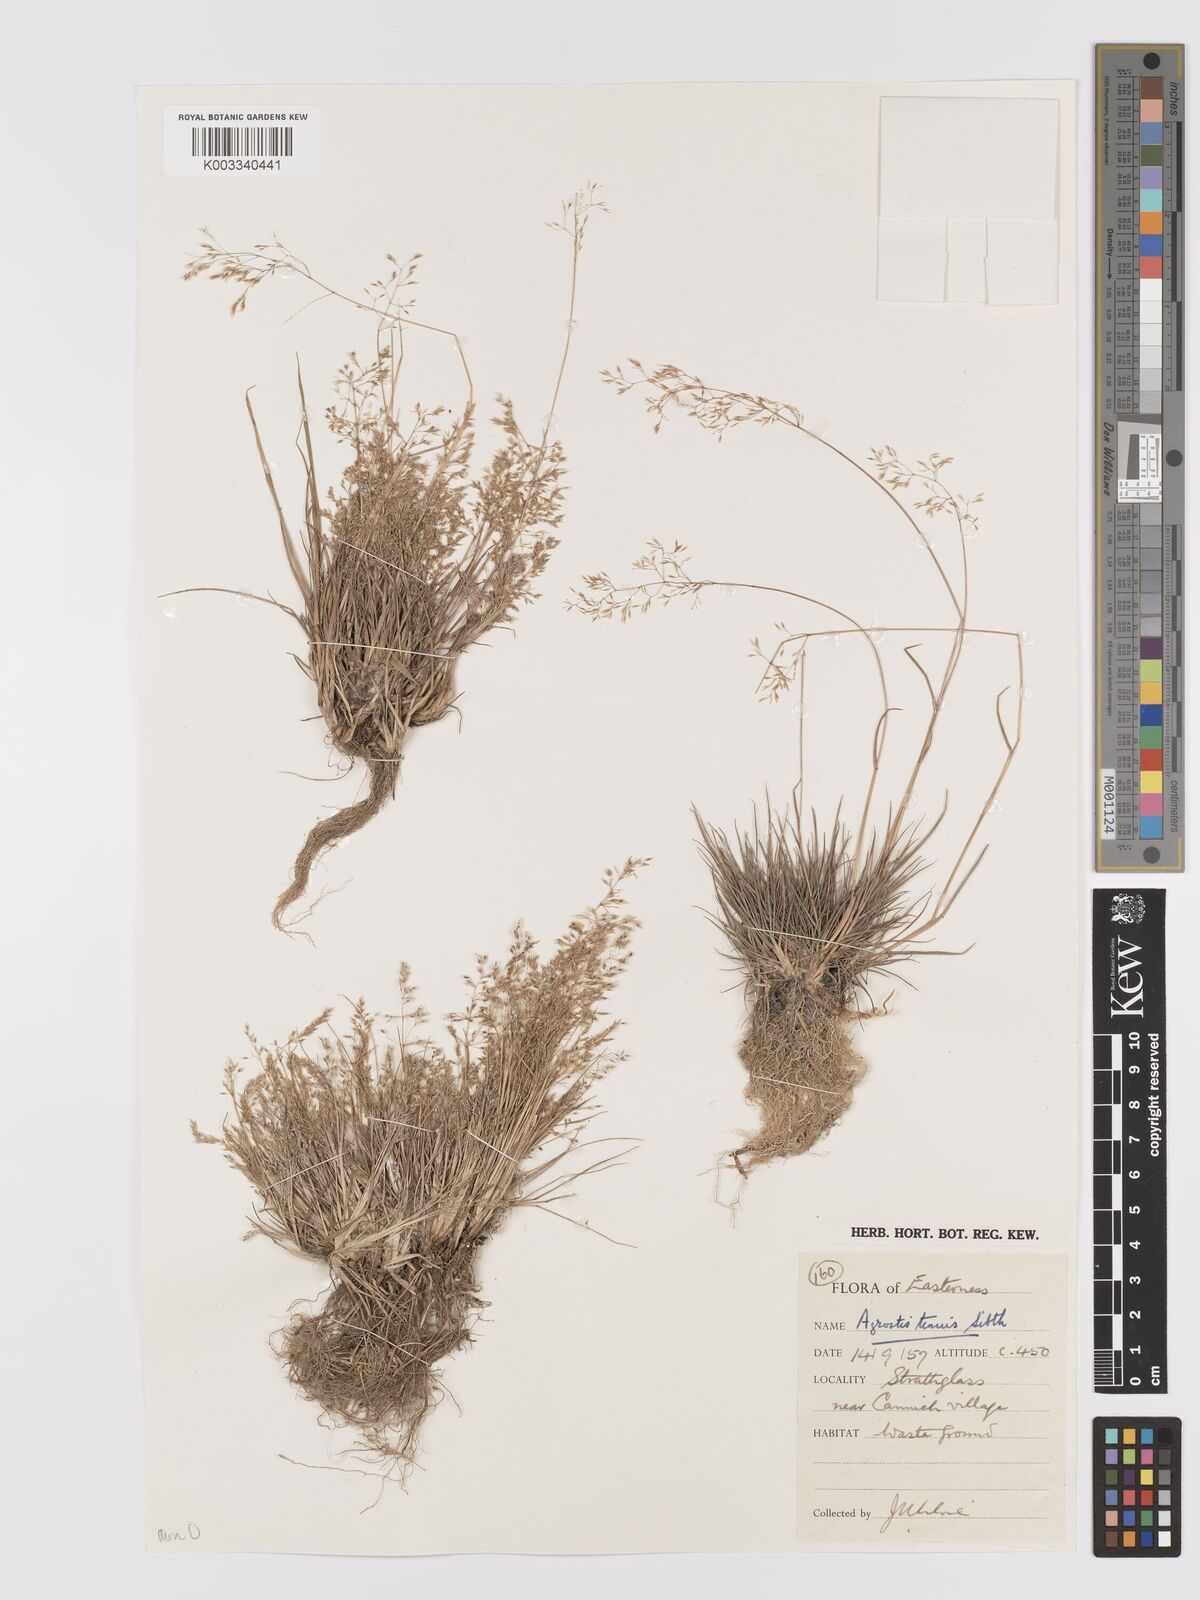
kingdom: Plantae
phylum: Tracheophyta
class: Liliopsida
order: Poales
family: Poaceae
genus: Agrostis
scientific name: Agrostis capillaris
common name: Colonial bentgrass
